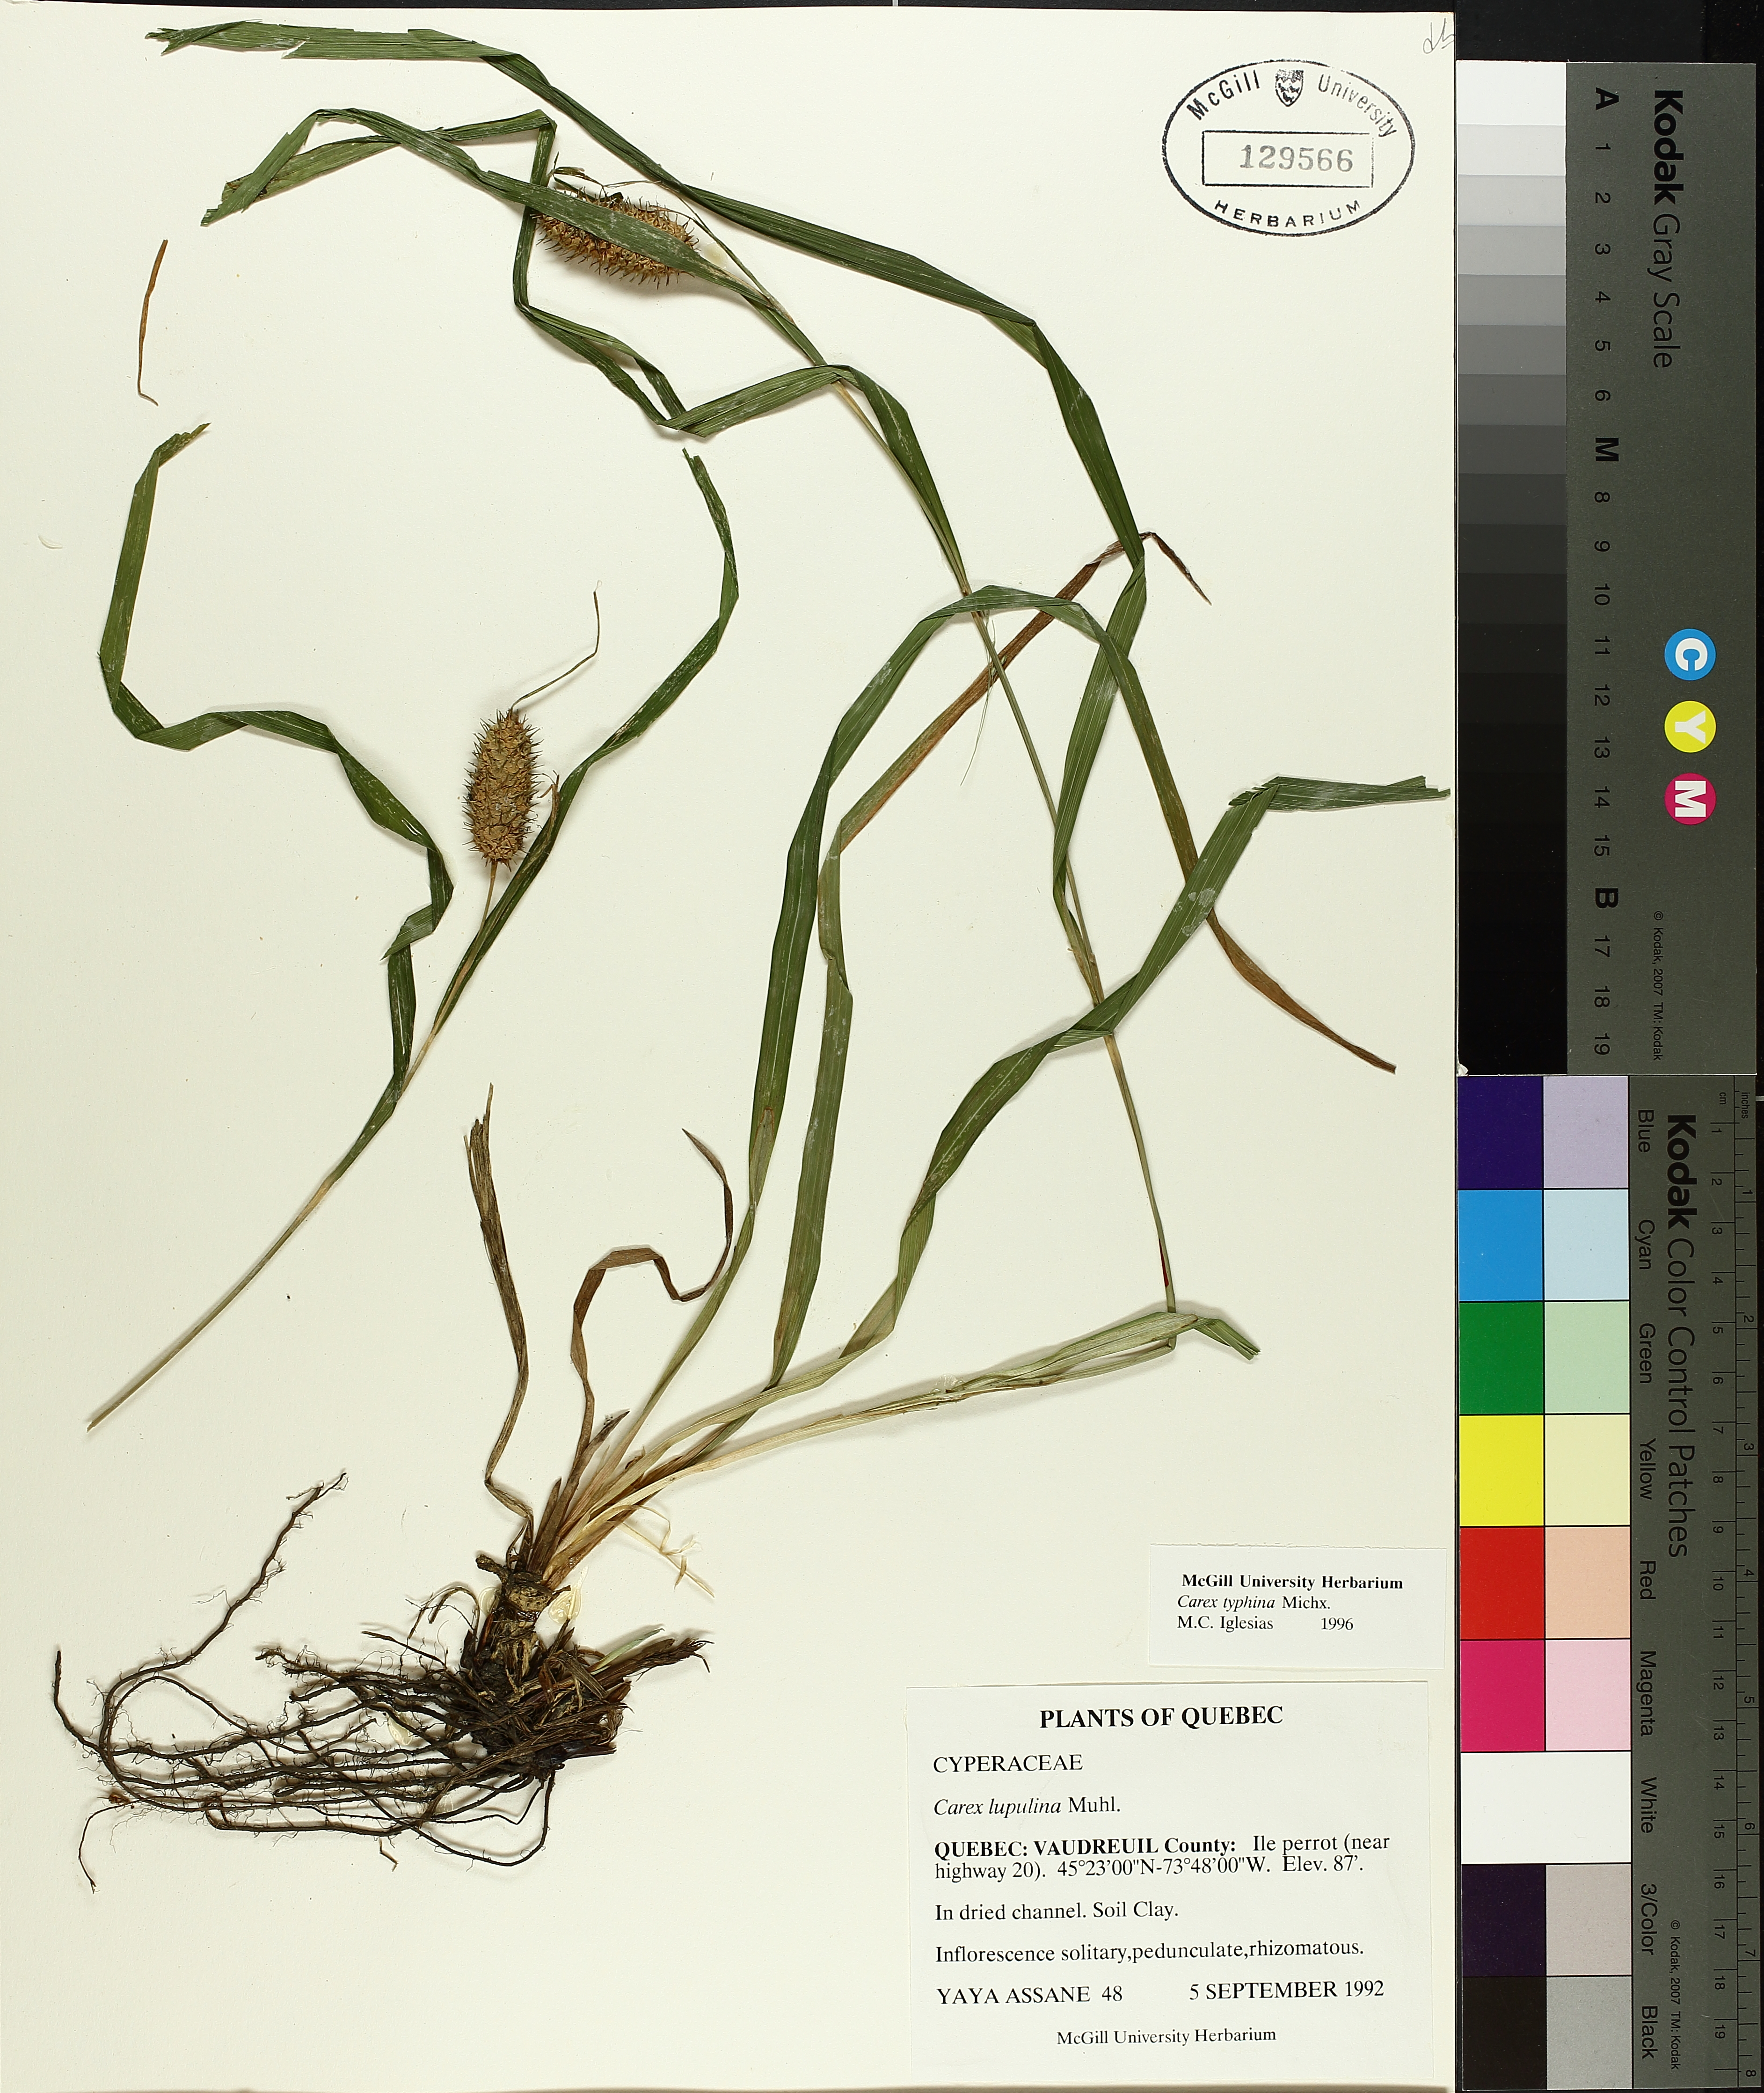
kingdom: Plantae
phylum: Tracheophyta
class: Liliopsida
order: Poales
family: Cyperaceae
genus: Carex
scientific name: Carex typhina
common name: Cattail sedge
